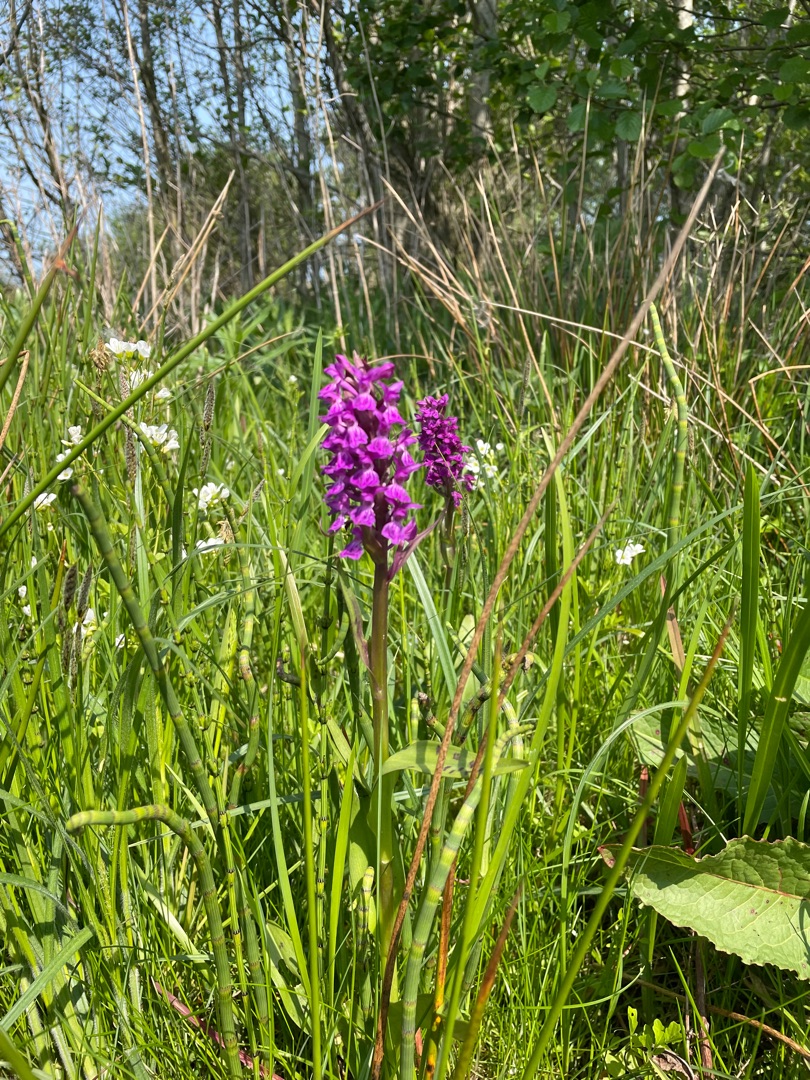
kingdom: Plantae
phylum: Tracheophyta
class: Liliopsida
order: Asparagales
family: Orchidaceae
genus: Dactylorhiza
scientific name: Dactylorhiza majalis
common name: Maj-gøgeurt
